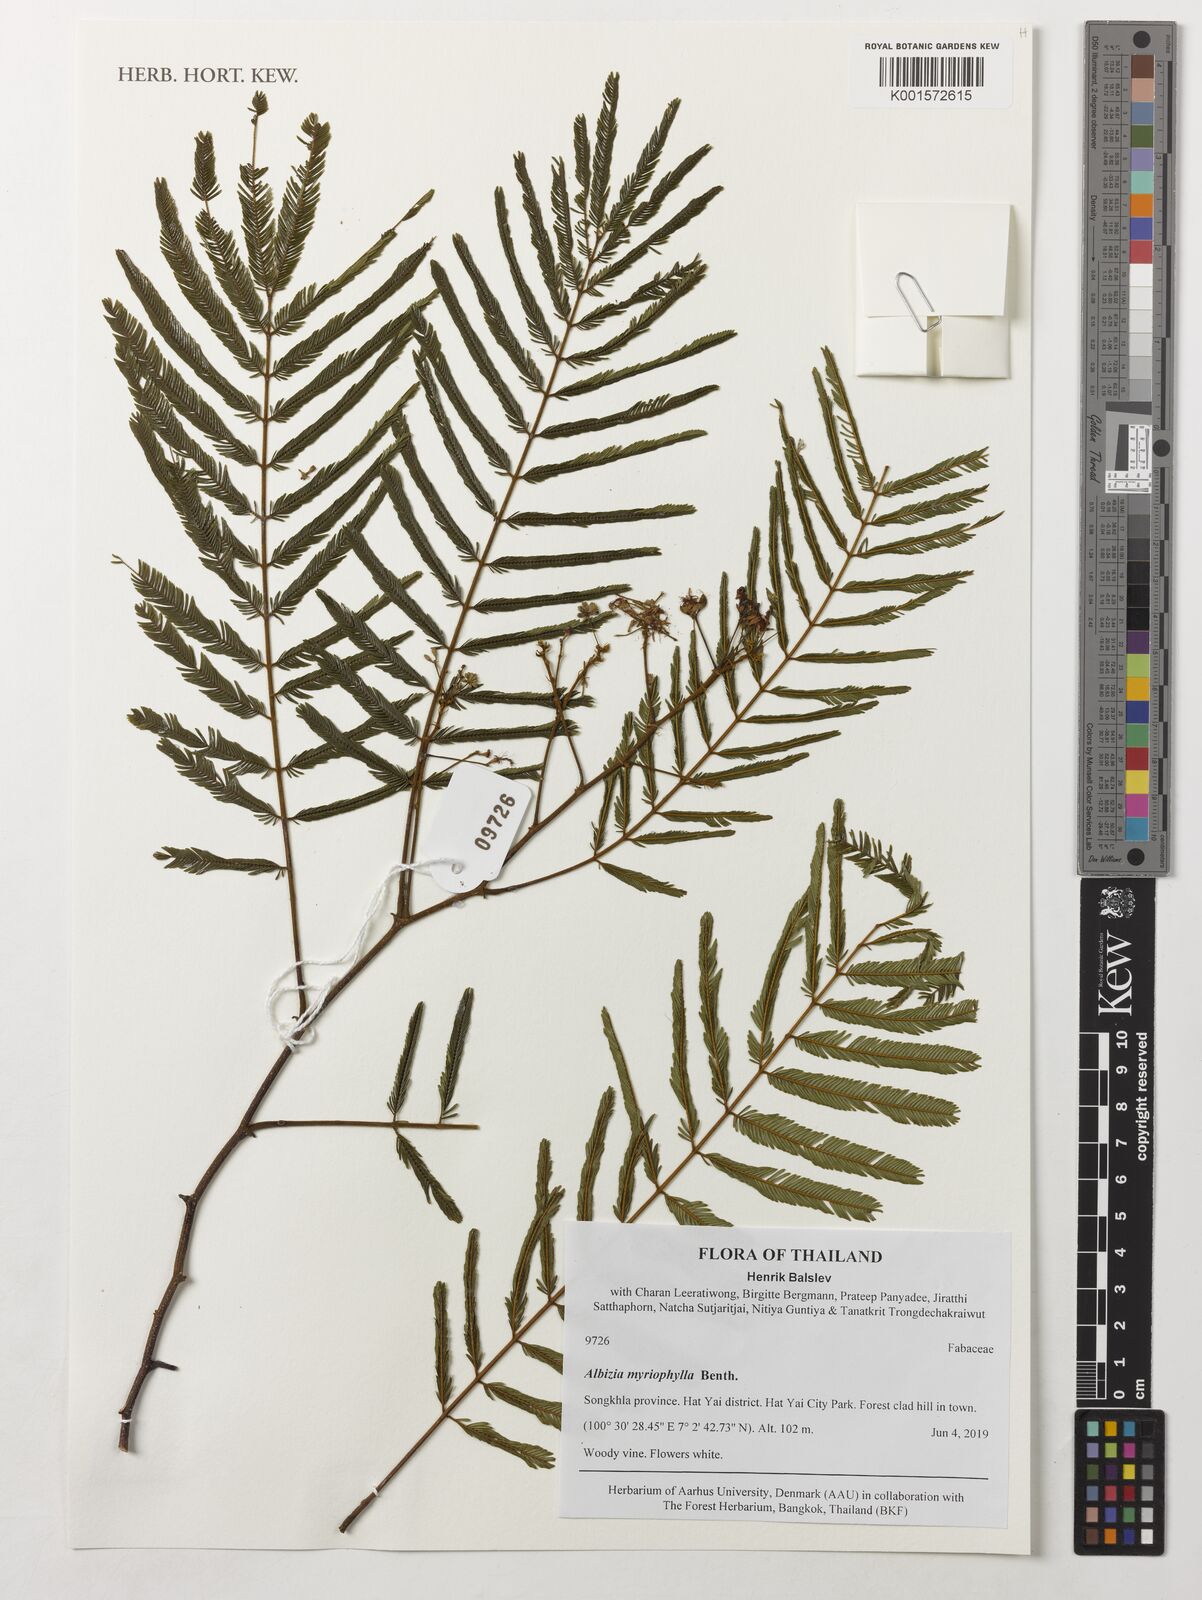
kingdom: Plantae
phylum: Tracheophyta
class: Magnoliopsida
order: Fabales
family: Fabaceae
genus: Albizia
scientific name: Albizia myriophylla
